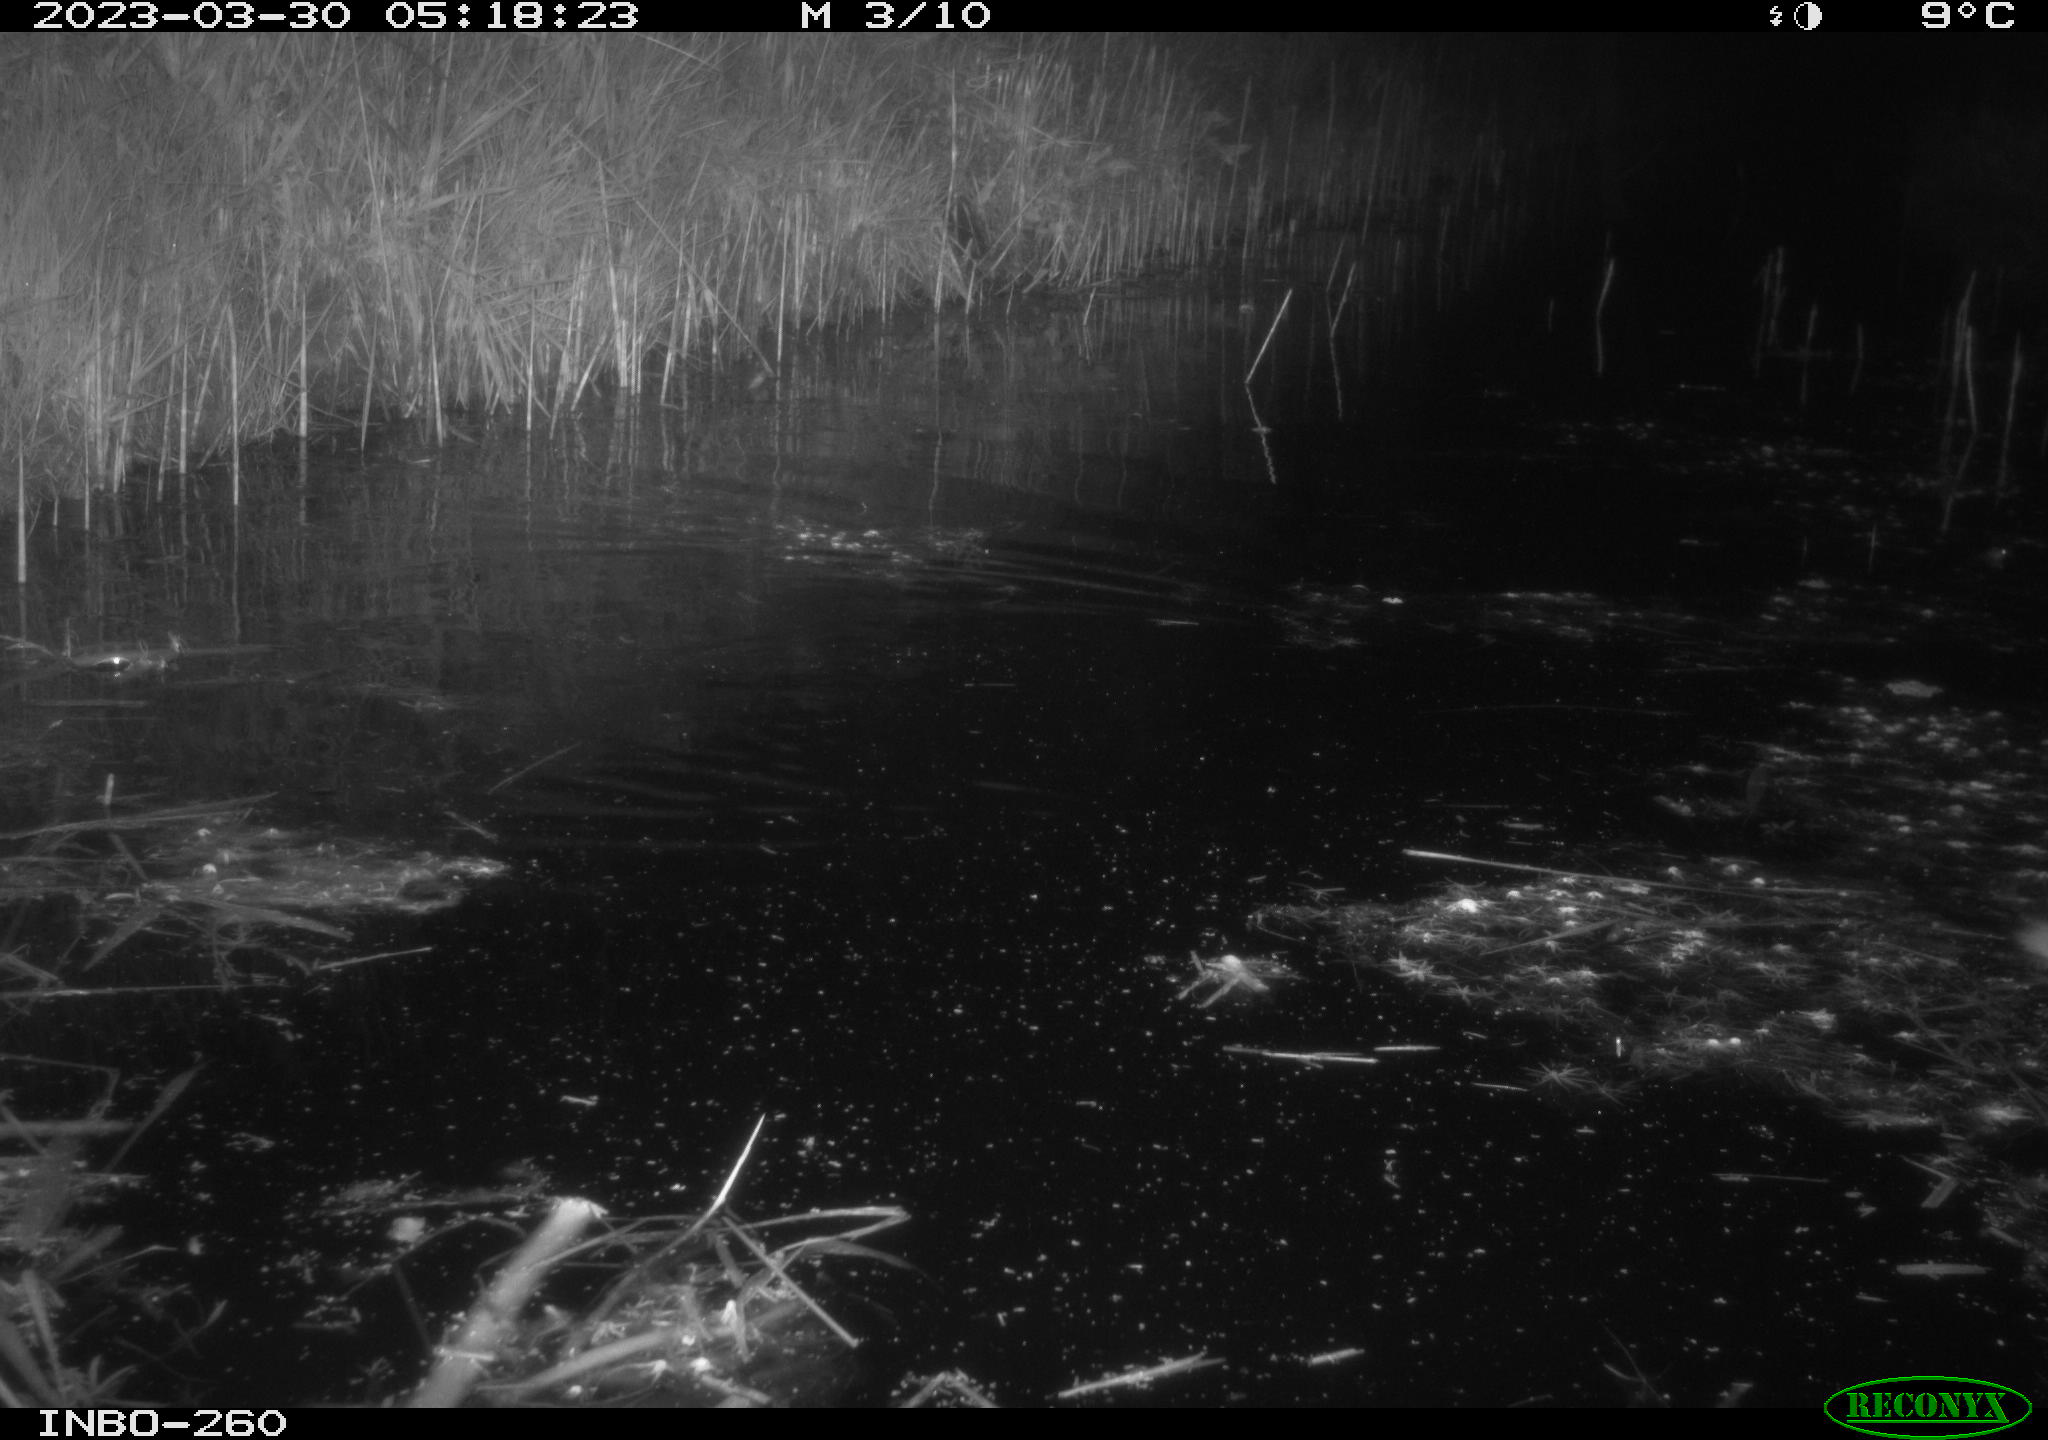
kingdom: Animalia
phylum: Chordata
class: Mammalia
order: Rodentia
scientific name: Rodentia
